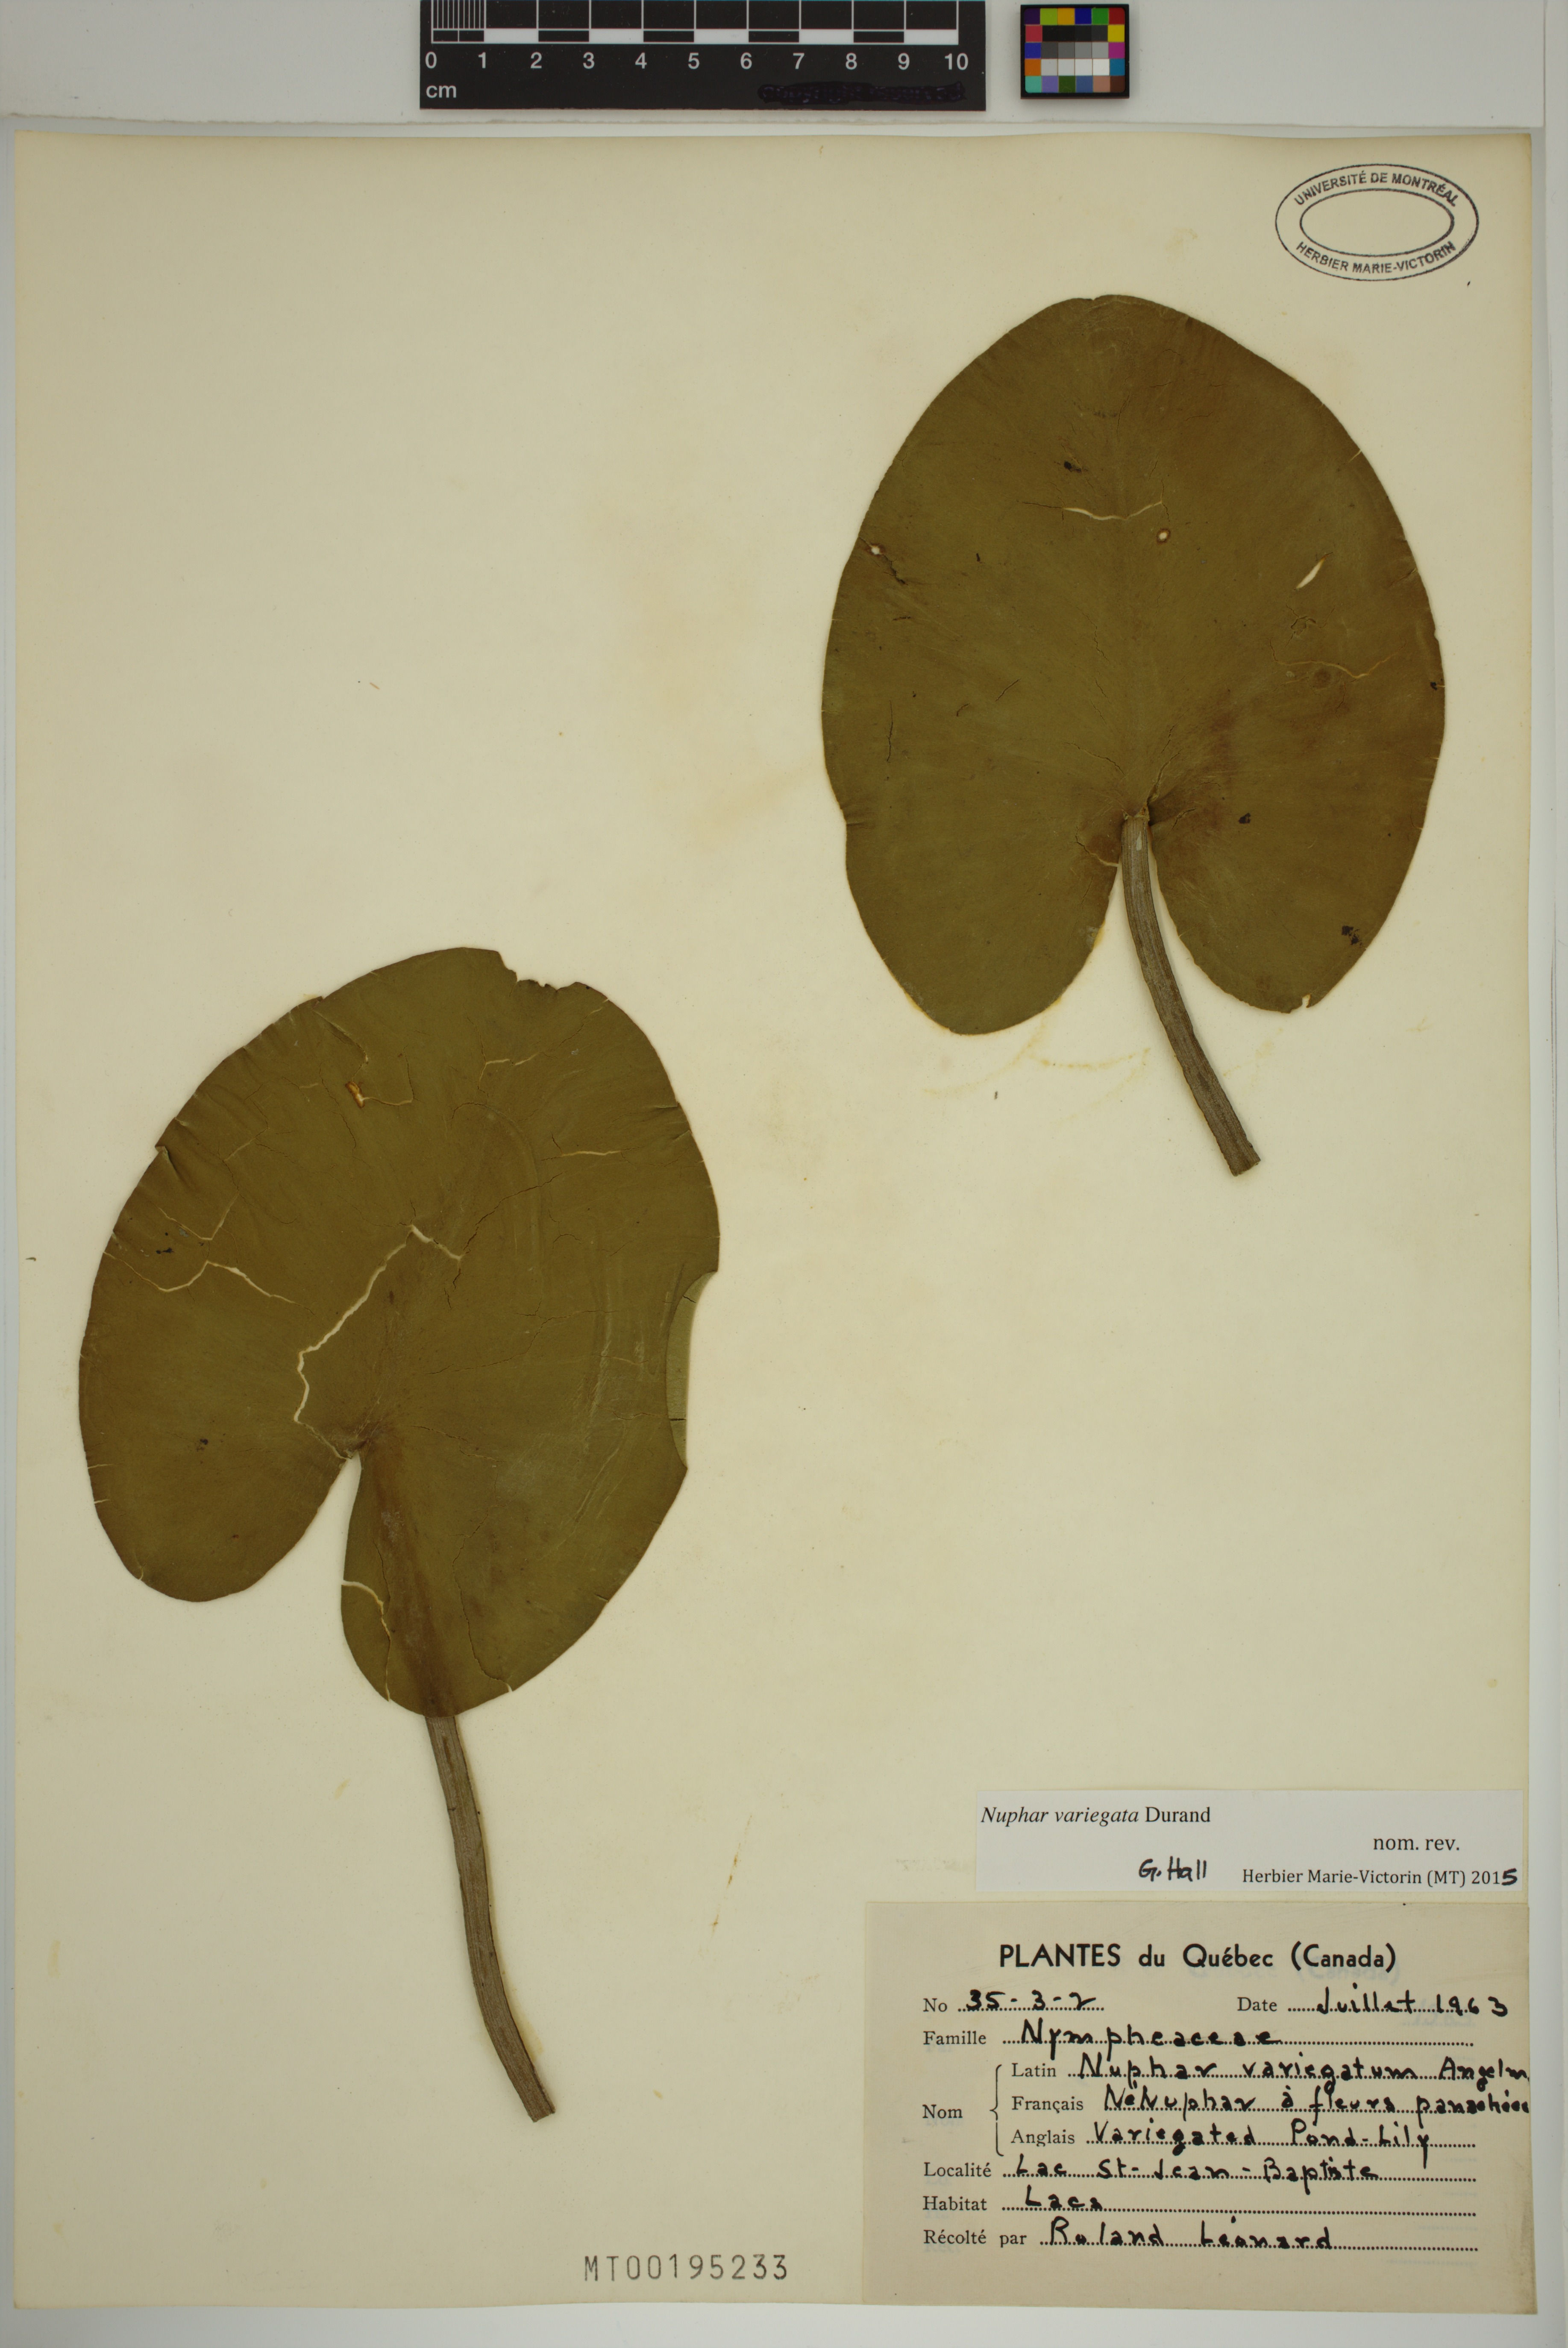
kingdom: Plantae
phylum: Tracheophyta
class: Magnoliopsida
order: Nymphaeales
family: Nymphaeaceae
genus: Nuphar
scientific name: Nuphar variegata
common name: Beaver-root
